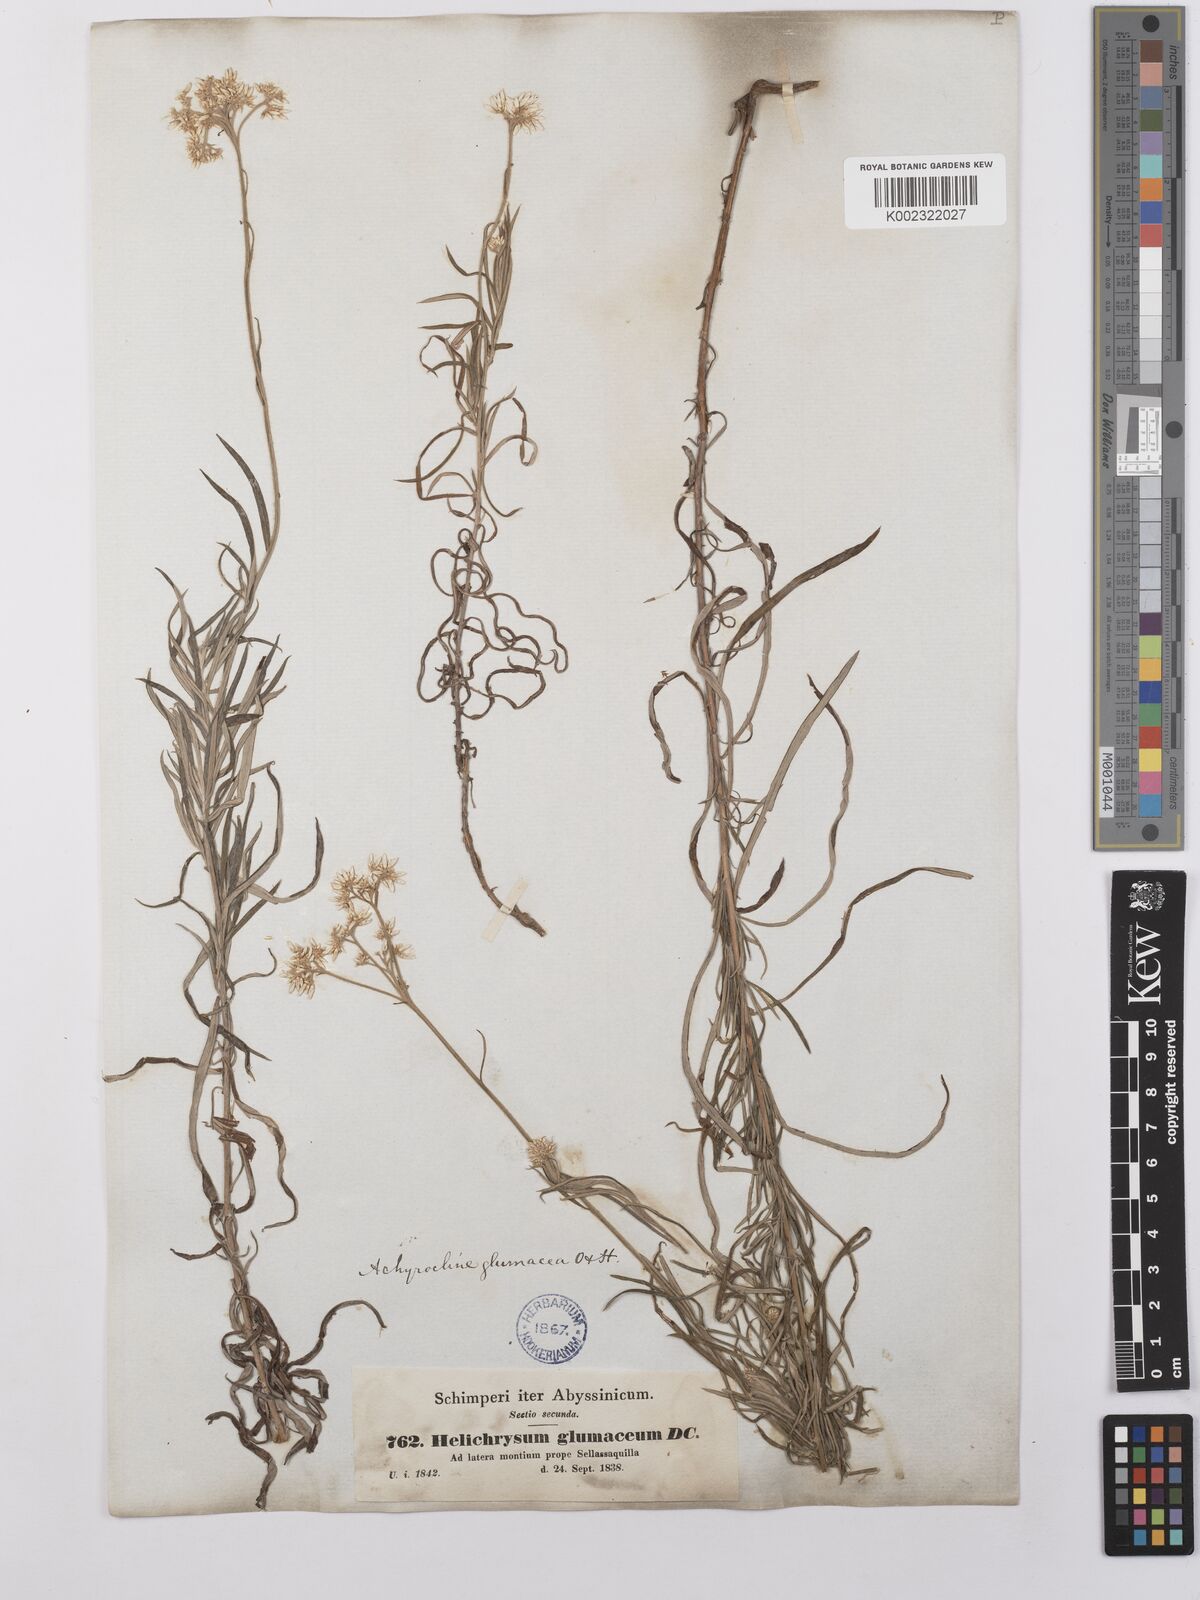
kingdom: Plantae
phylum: Tracheophyta
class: Magnoliopsida
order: Asterales
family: Asteraceae
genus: Helichrysum
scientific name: Helichrysum glumaceum
